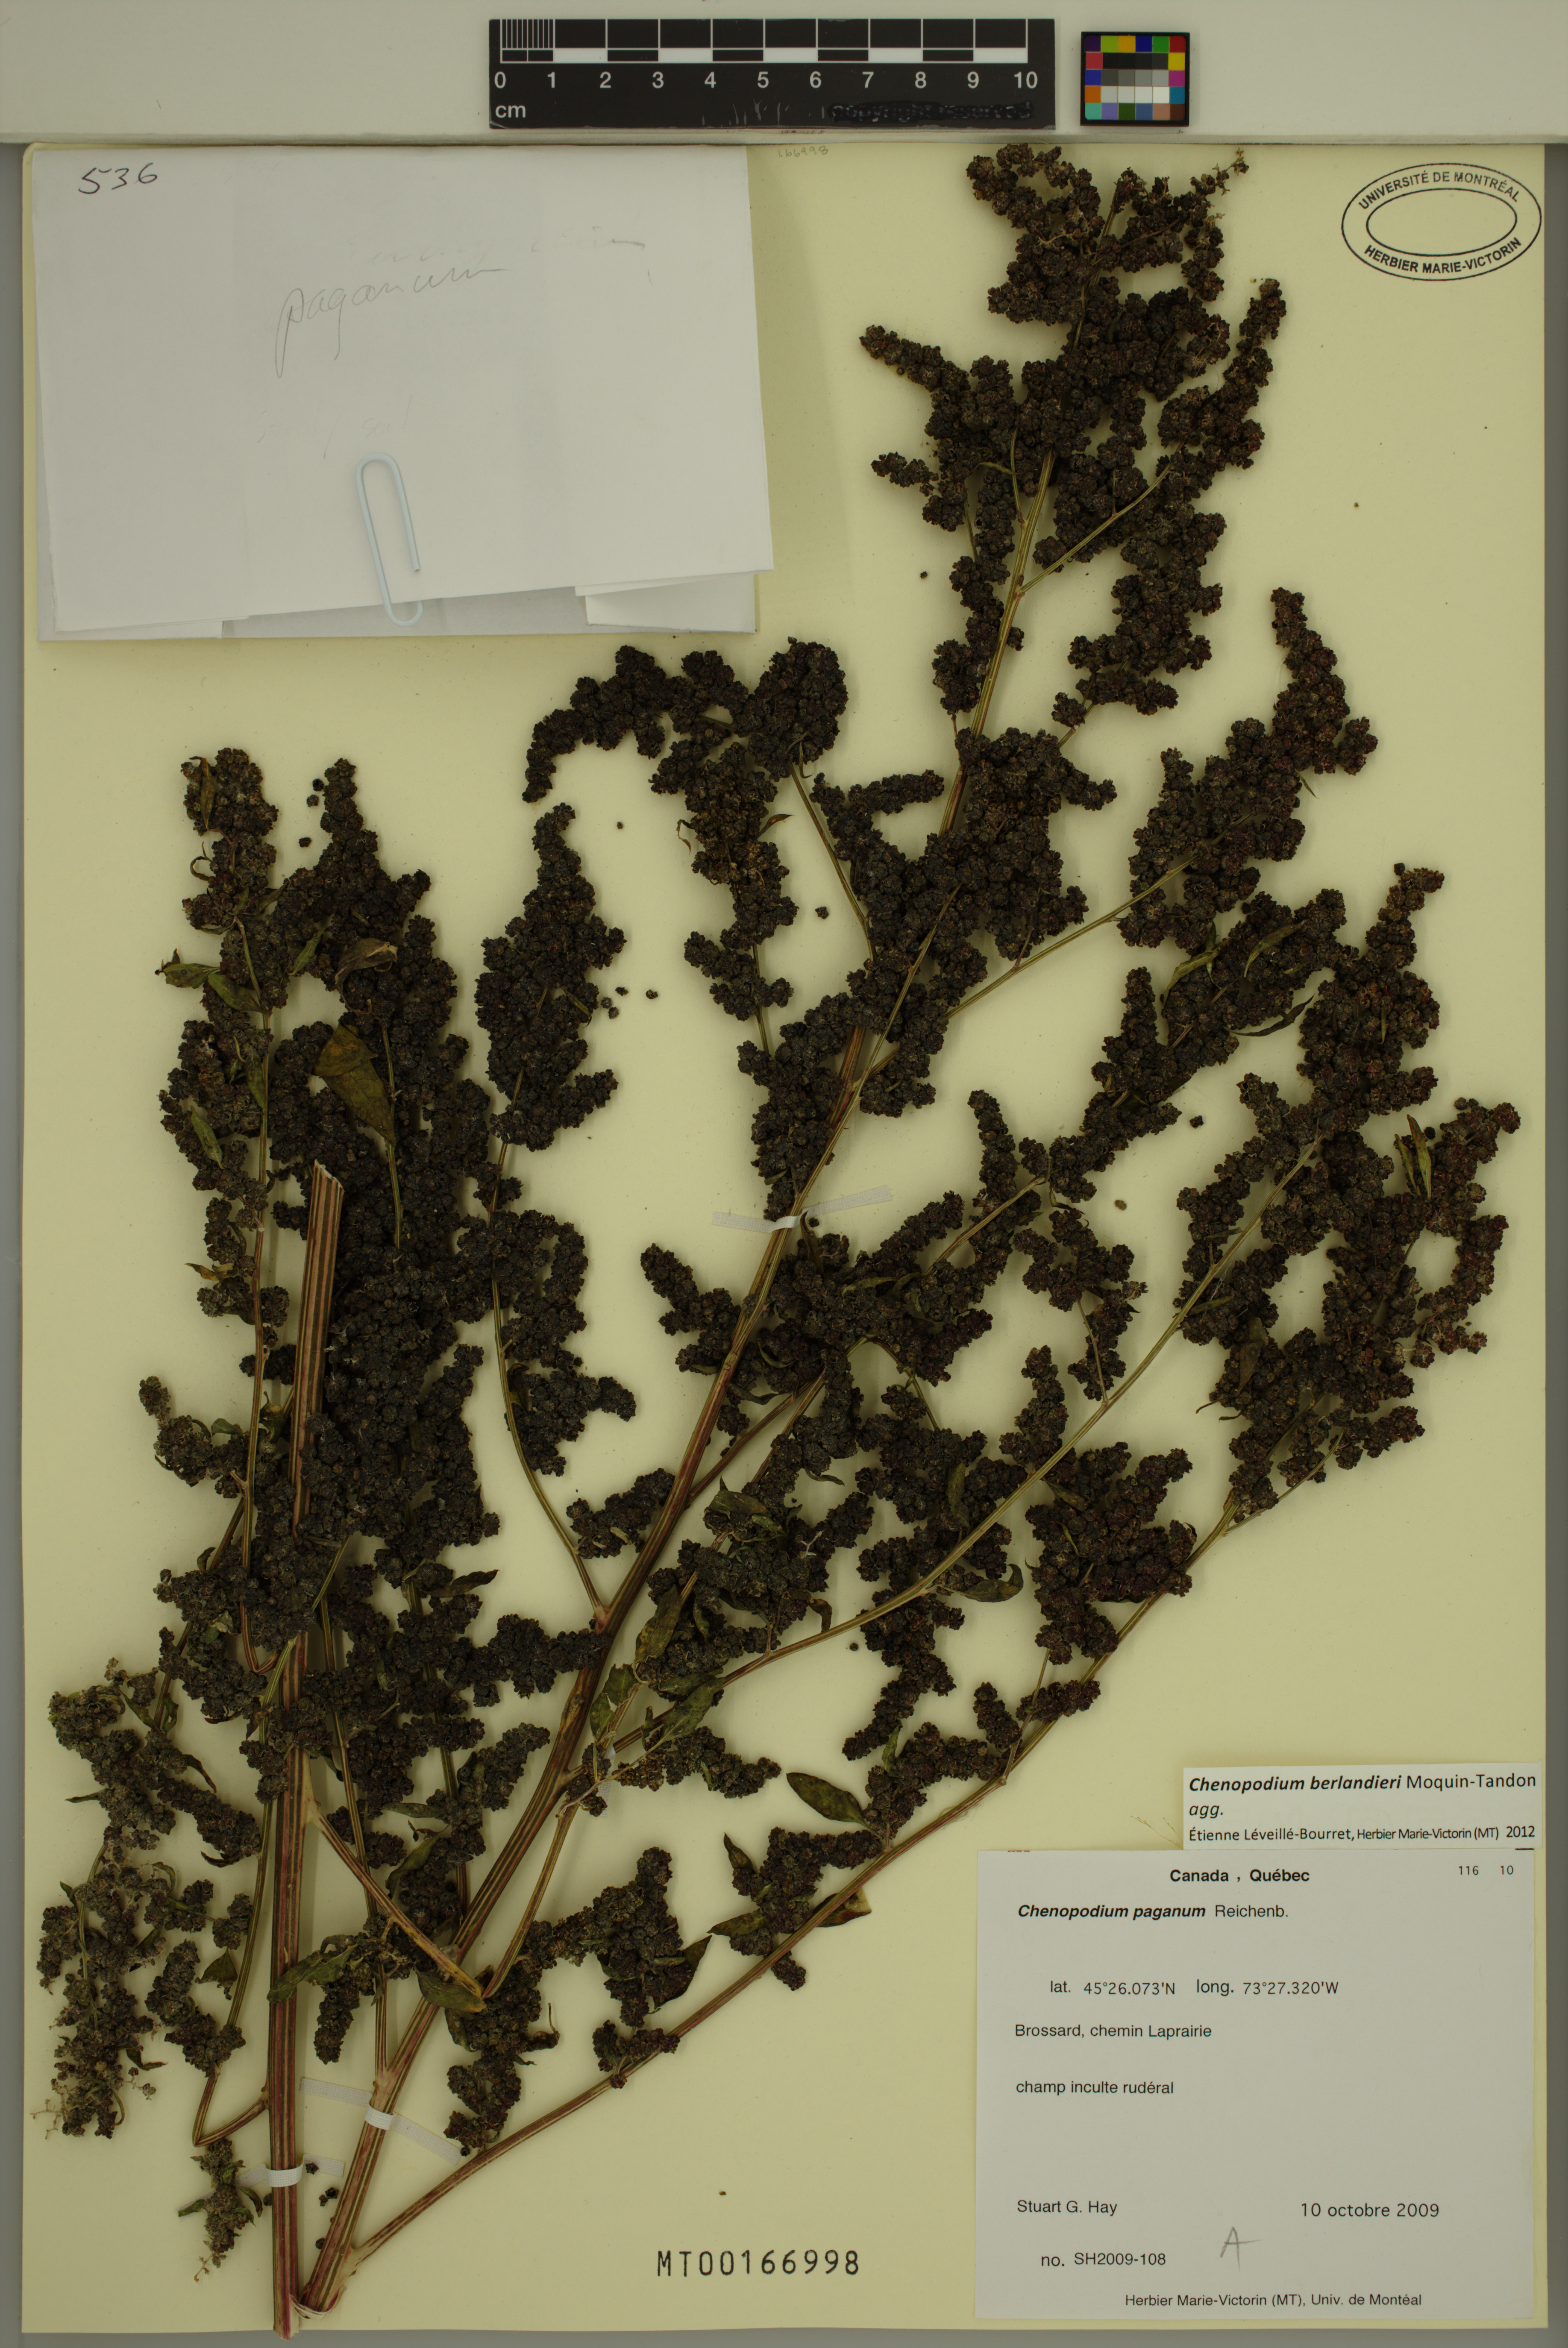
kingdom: Plantae
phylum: Tracheophyta
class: Magnoliopsida
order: Caryophyllales
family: Amaranthaceae
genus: Chenopodium
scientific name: Chenopodium berlandieri
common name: Pit-seed goosefoot
